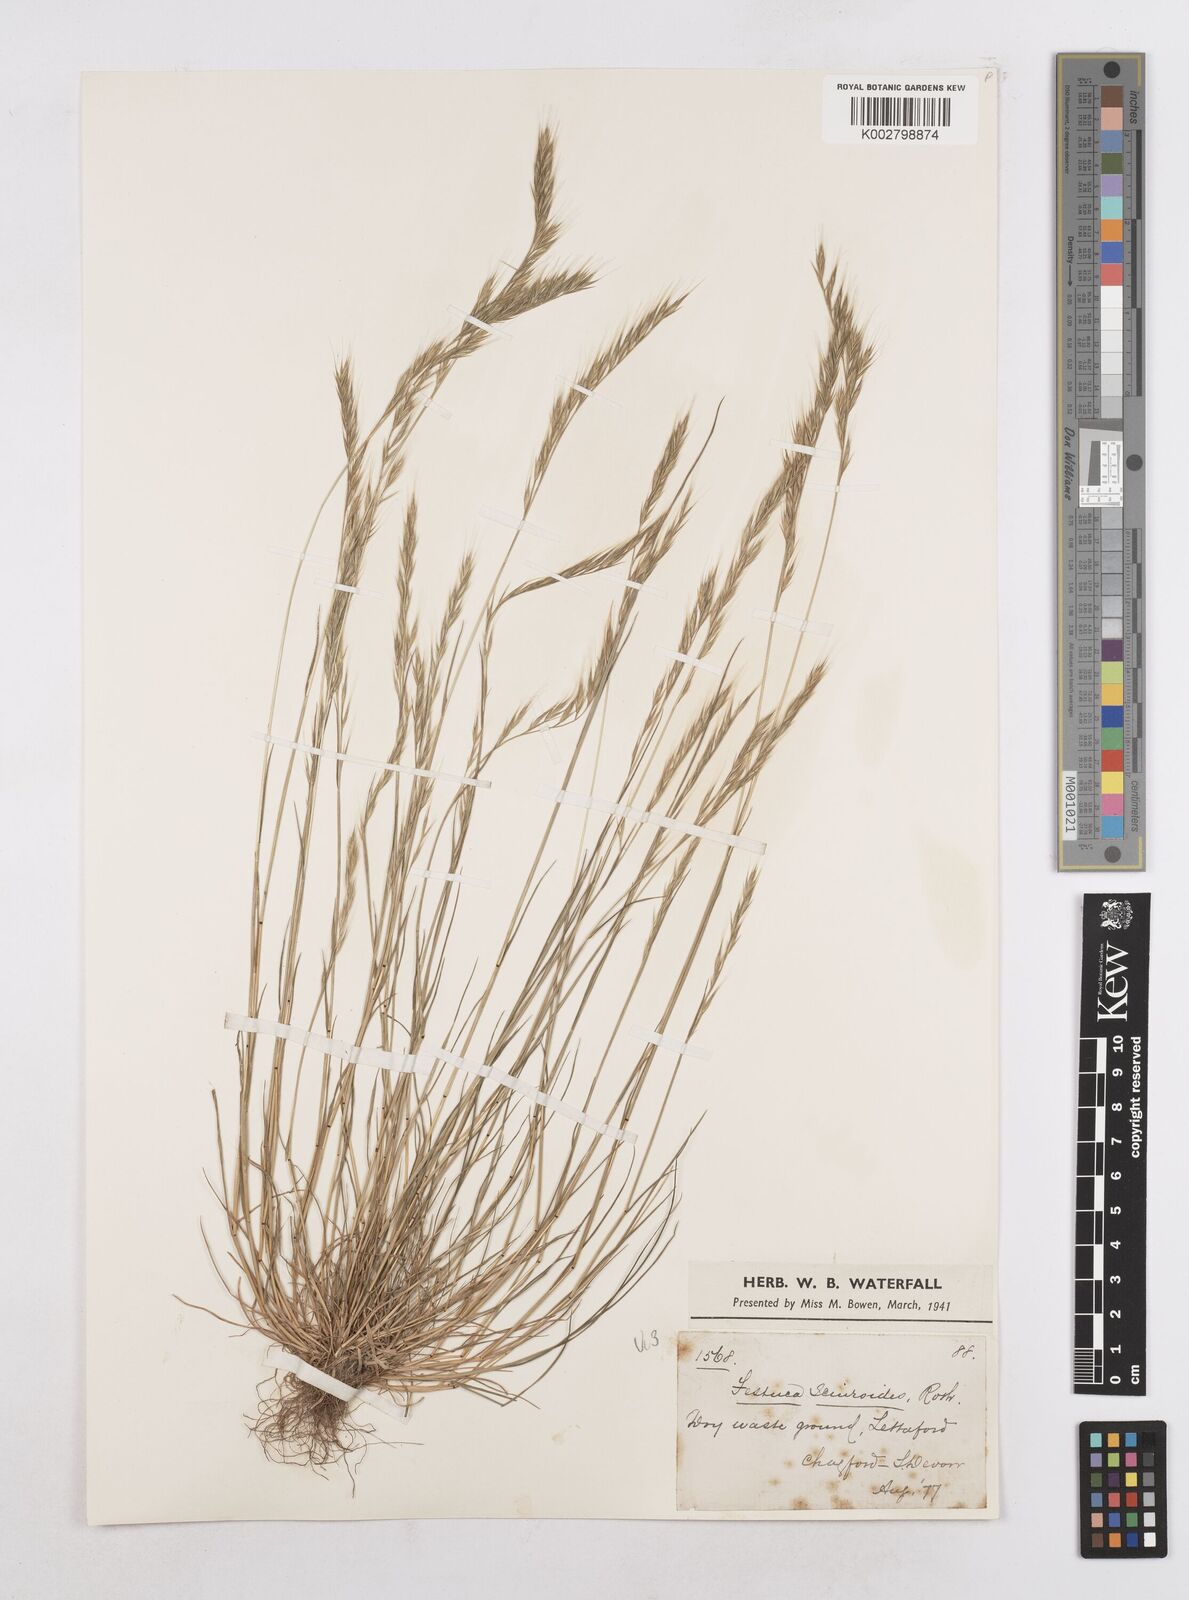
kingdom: Plantae
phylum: Tracheophyta
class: Liliopsida
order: Poales
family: Poaceae
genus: Festuca
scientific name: Festuca bromoides
